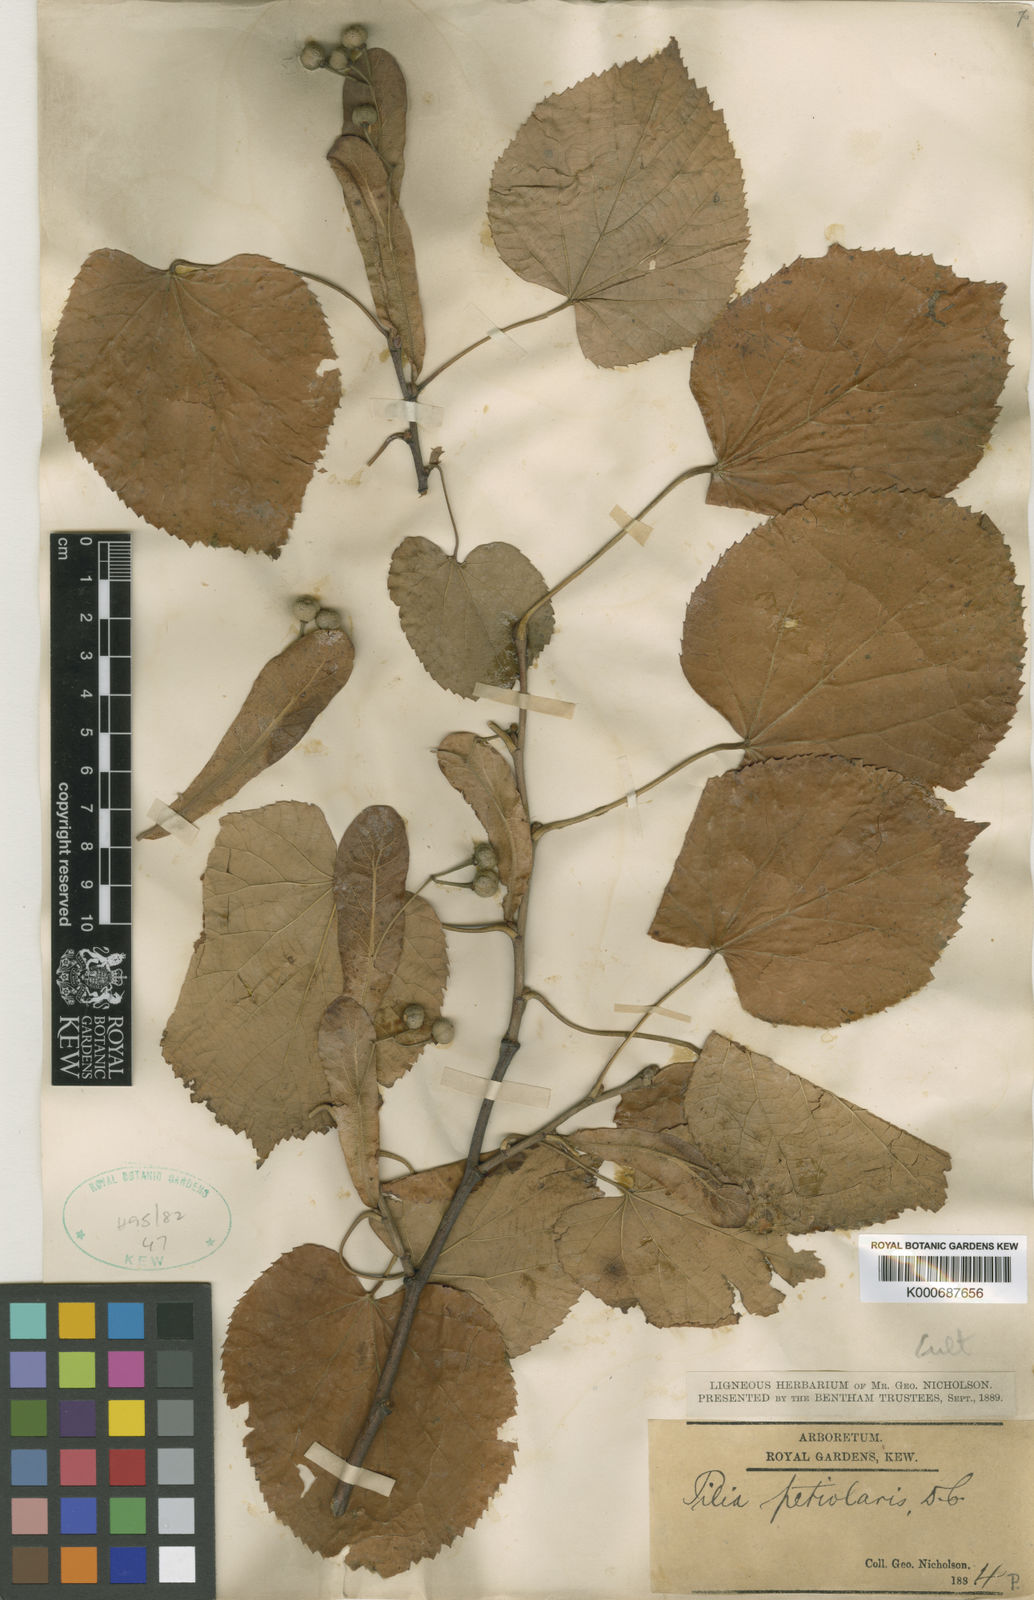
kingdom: Plantae
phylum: Tracheophyta
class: Magnoliopsida
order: Malvales
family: Malvaceae
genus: Tilia
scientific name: Tilia tomentosa
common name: Silver lime
